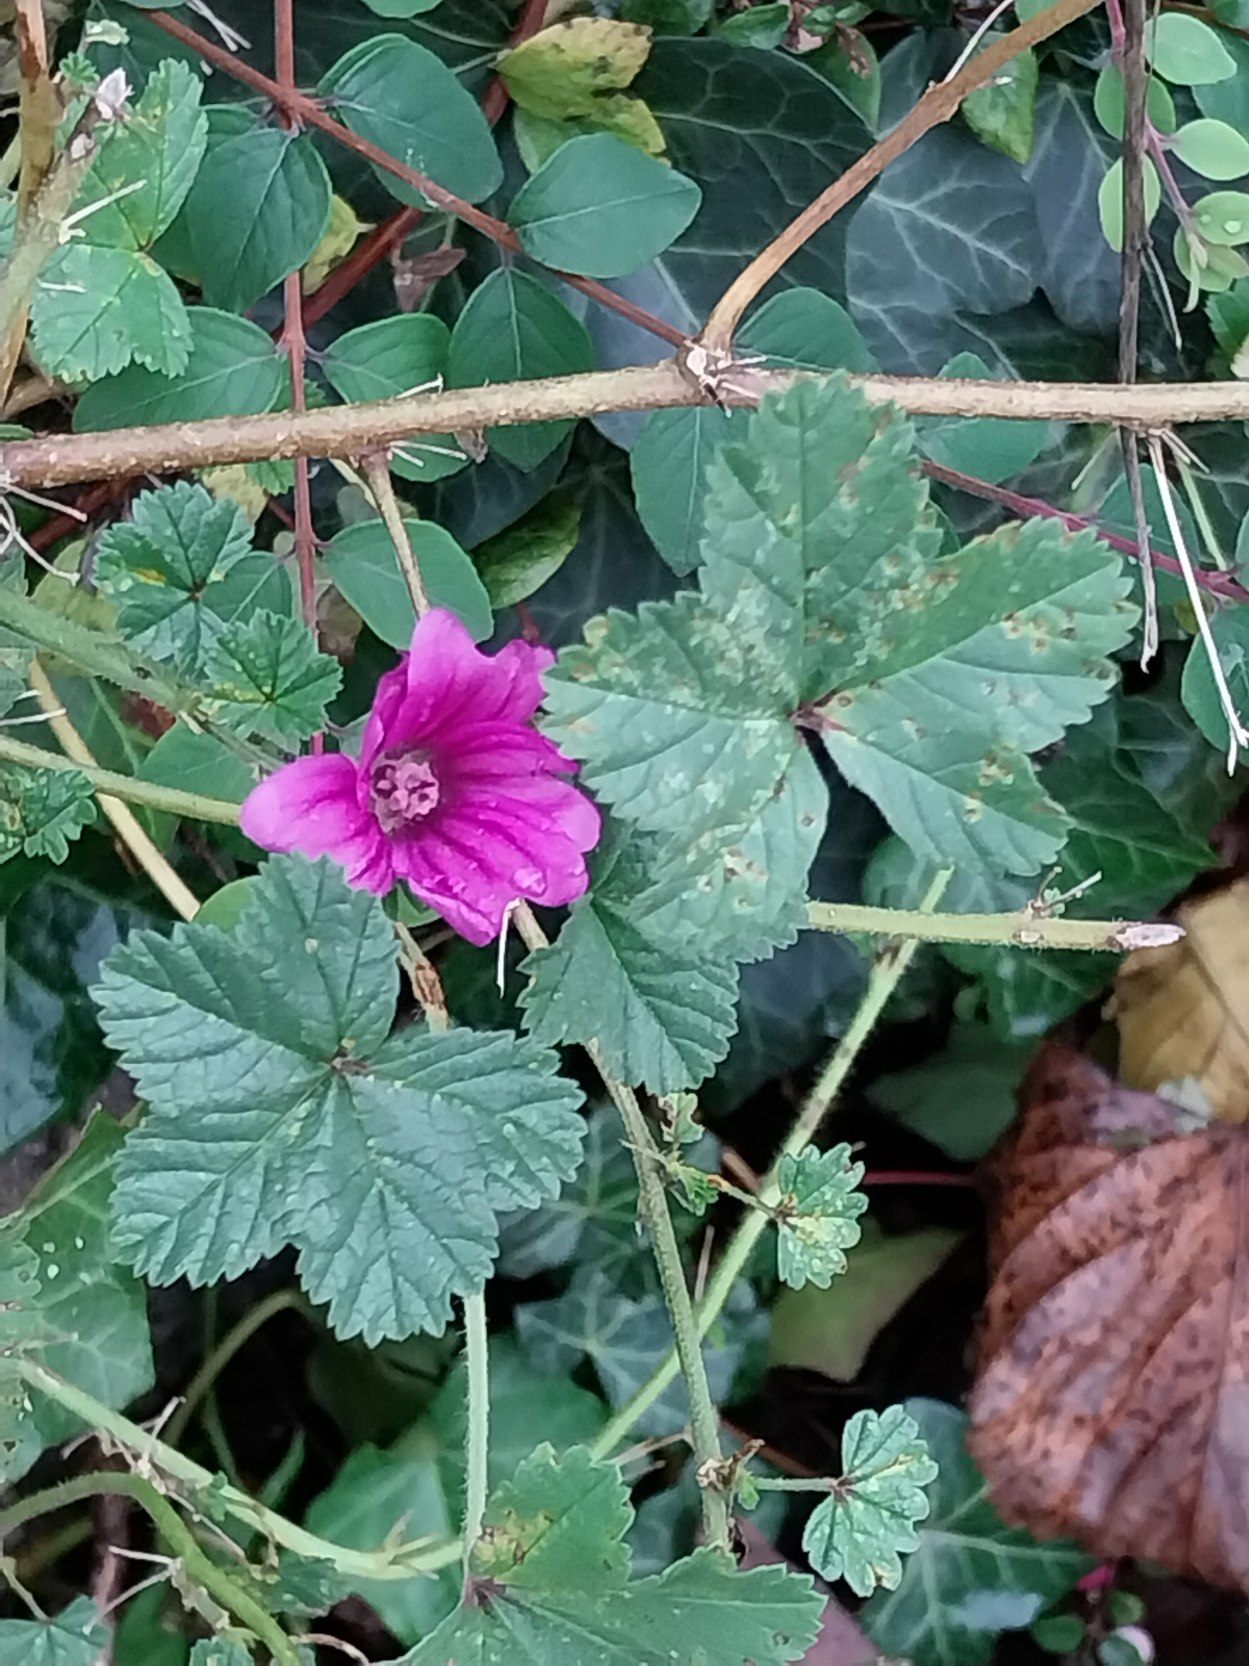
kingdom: Plantae
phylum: Tracheophyta
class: Magnoliopsida
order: Malvales
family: Malvaceae
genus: Malva
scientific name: Malva sylvestris
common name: Almindelig katost
